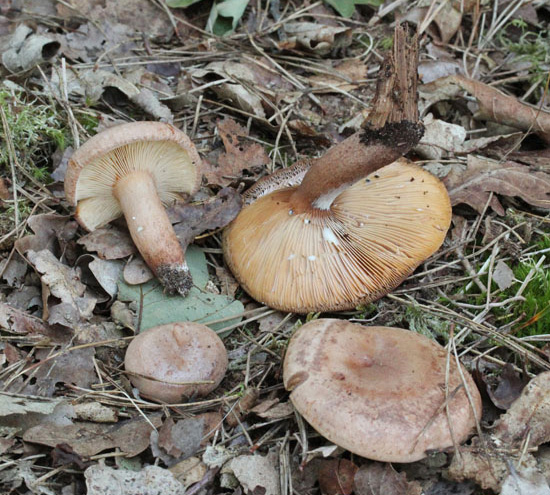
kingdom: Fungi
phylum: Basidiomycota
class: Agaricomycetes
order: Russulales
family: Russulaceae
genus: Lactarius
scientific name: Lactarius quietus
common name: ege-mælkehat
